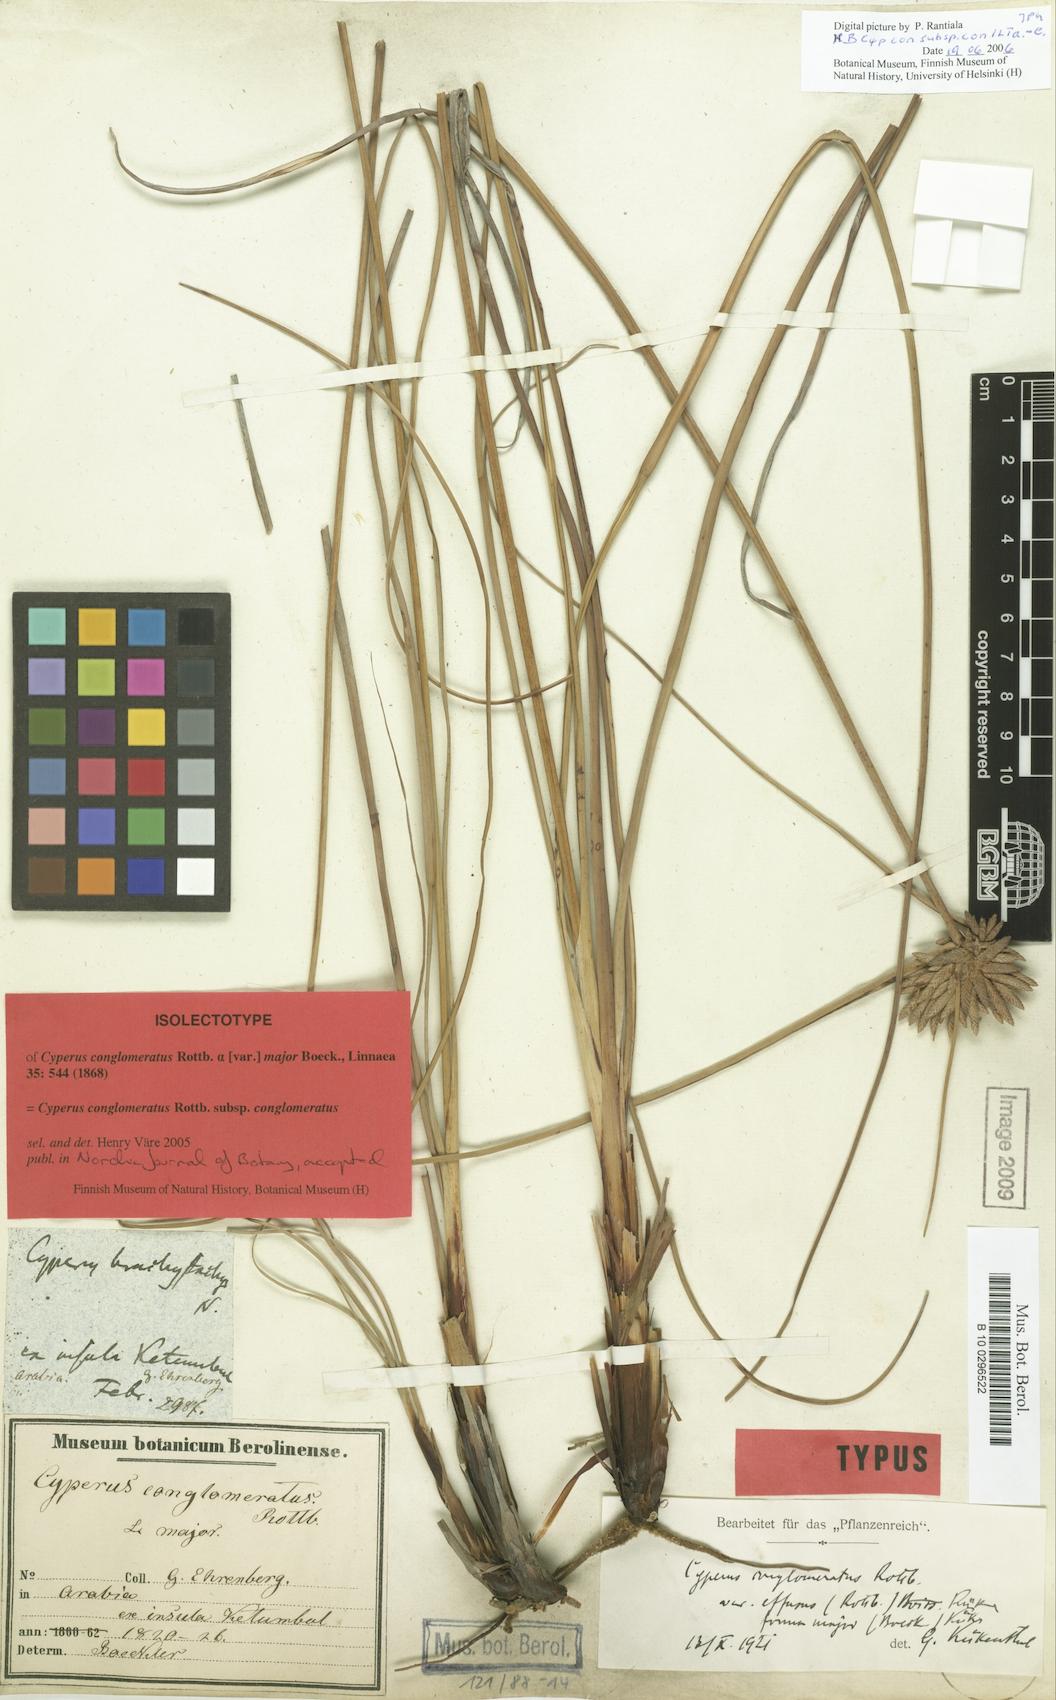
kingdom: Plantae
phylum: Tracheophyta
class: Liliopsida
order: Poales
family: Cyperaceae
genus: Cyperus
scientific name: Cyperus conglomeratus
